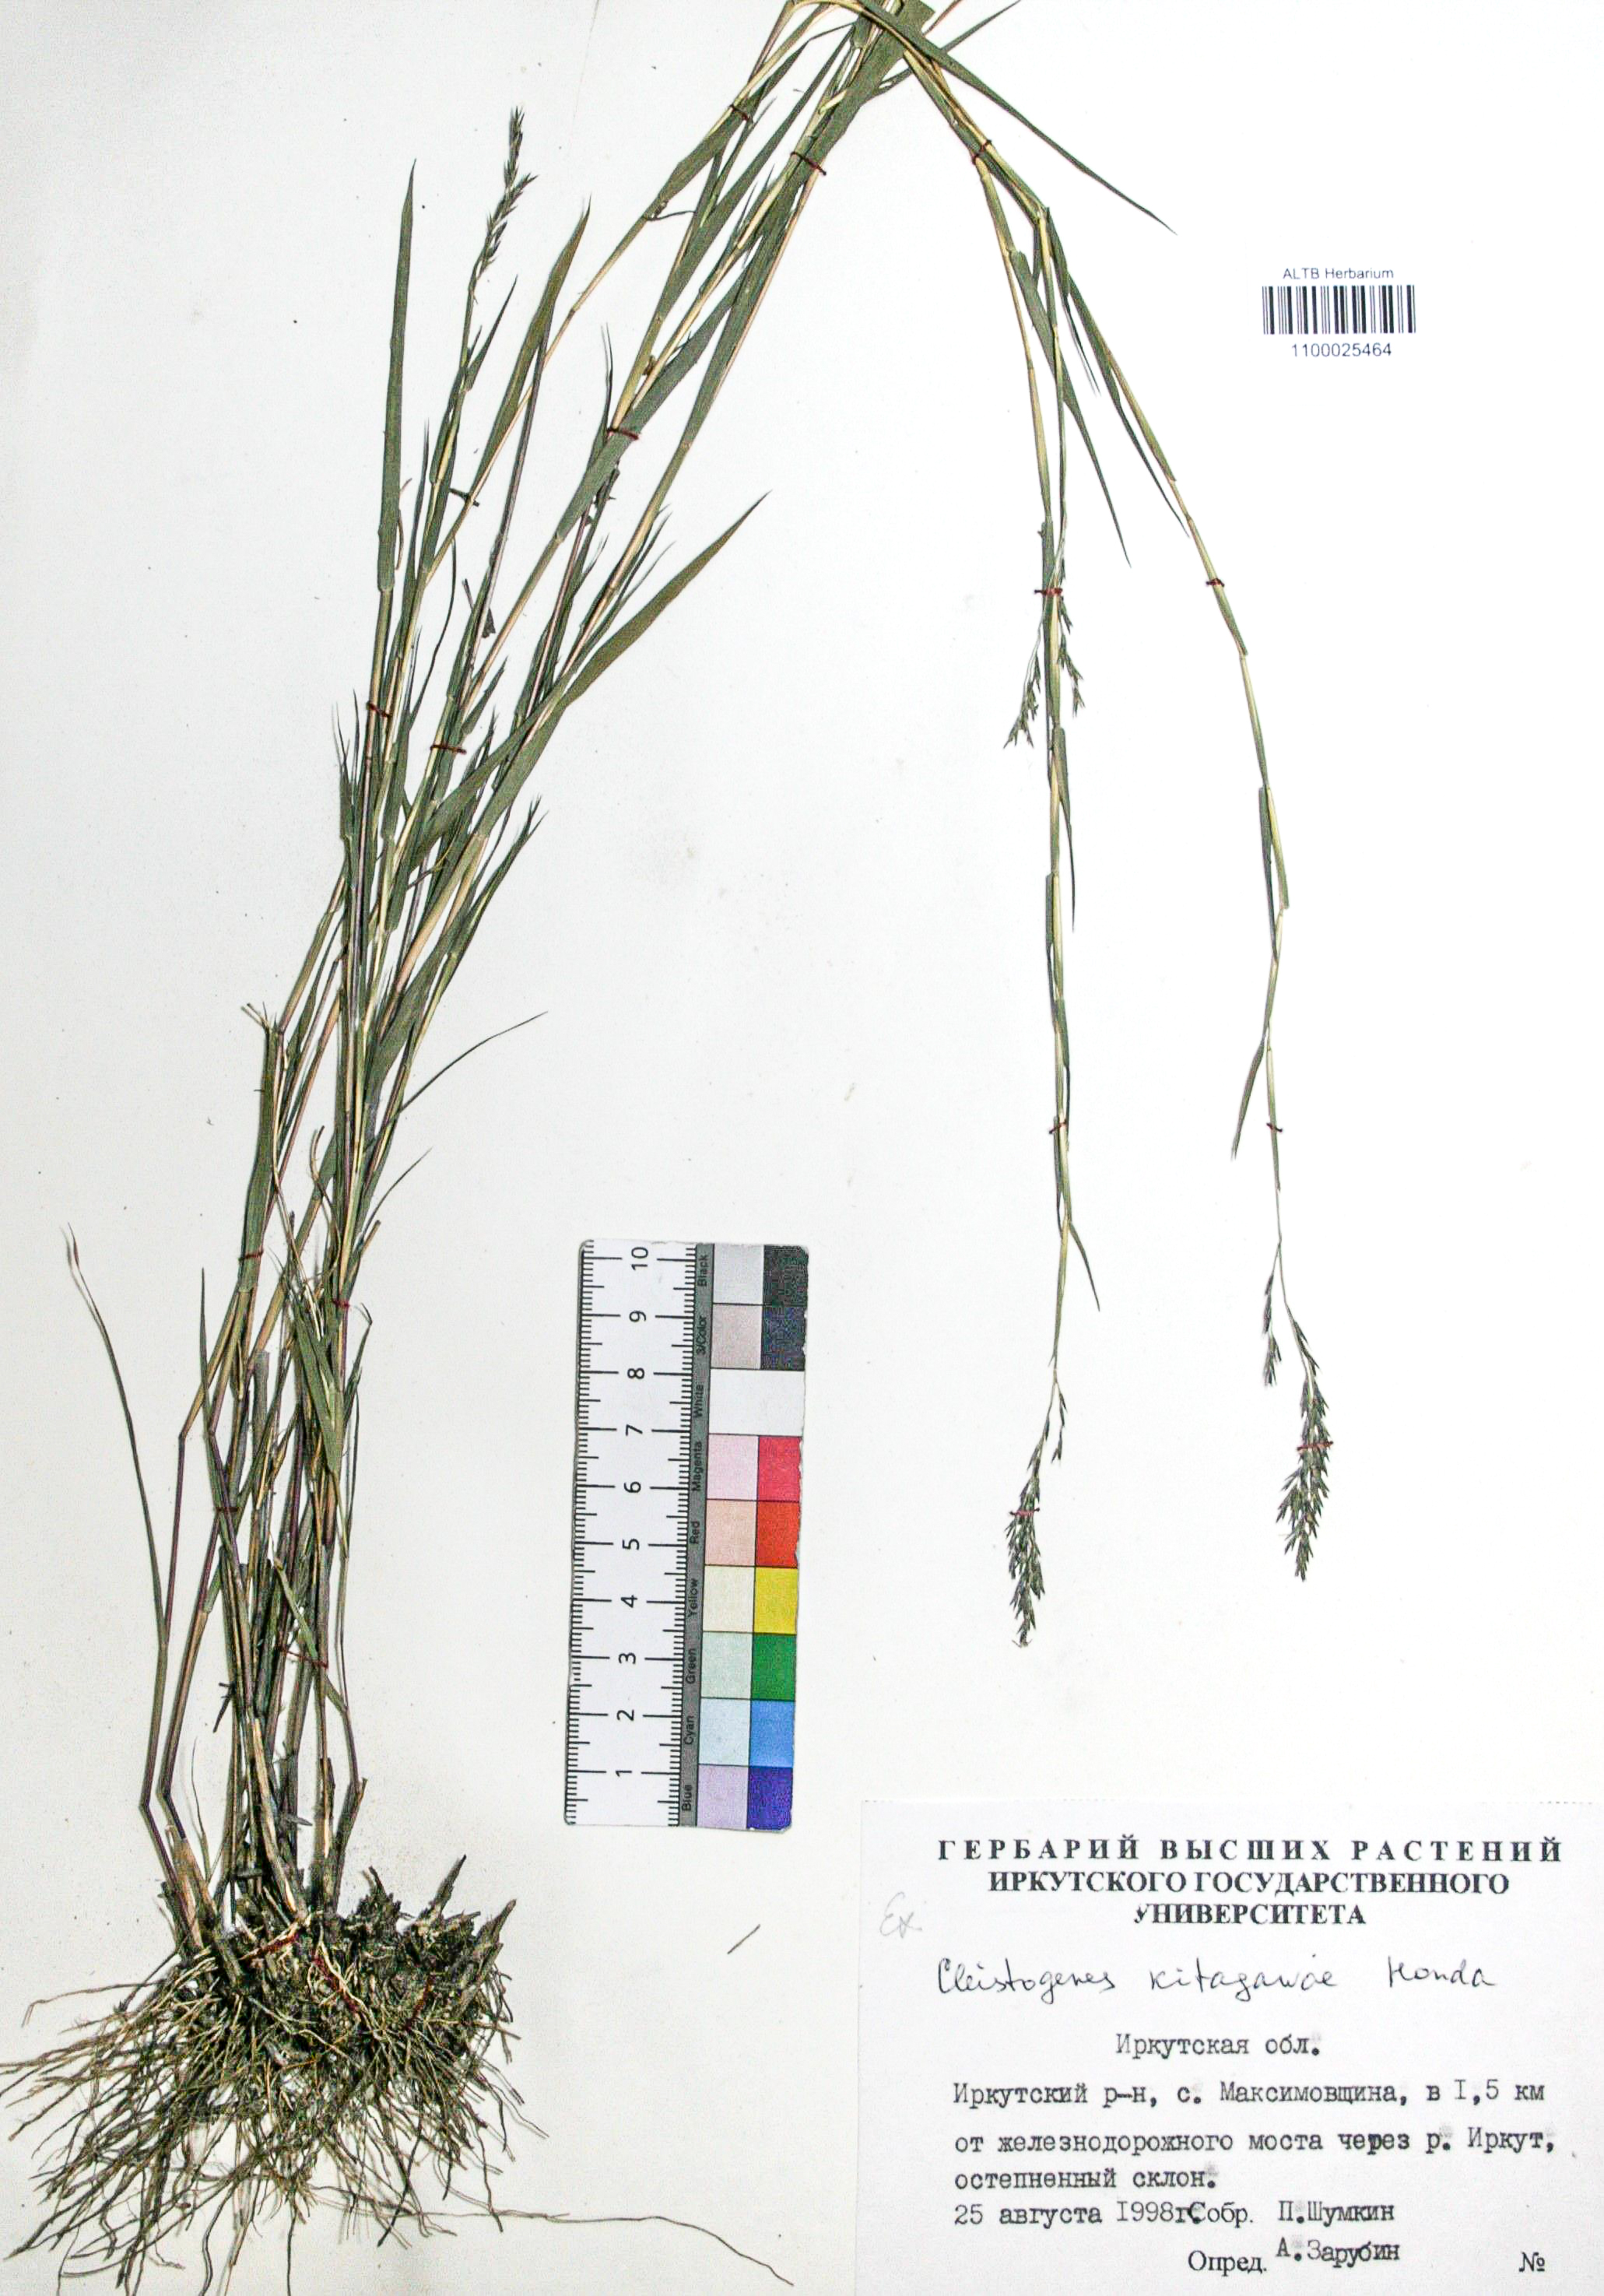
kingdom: Plantae
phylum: Tracheophyta
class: Liliopsida
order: Poales
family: Poaceae
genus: Cleistogenes
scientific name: Cleistogenes kitagawae
